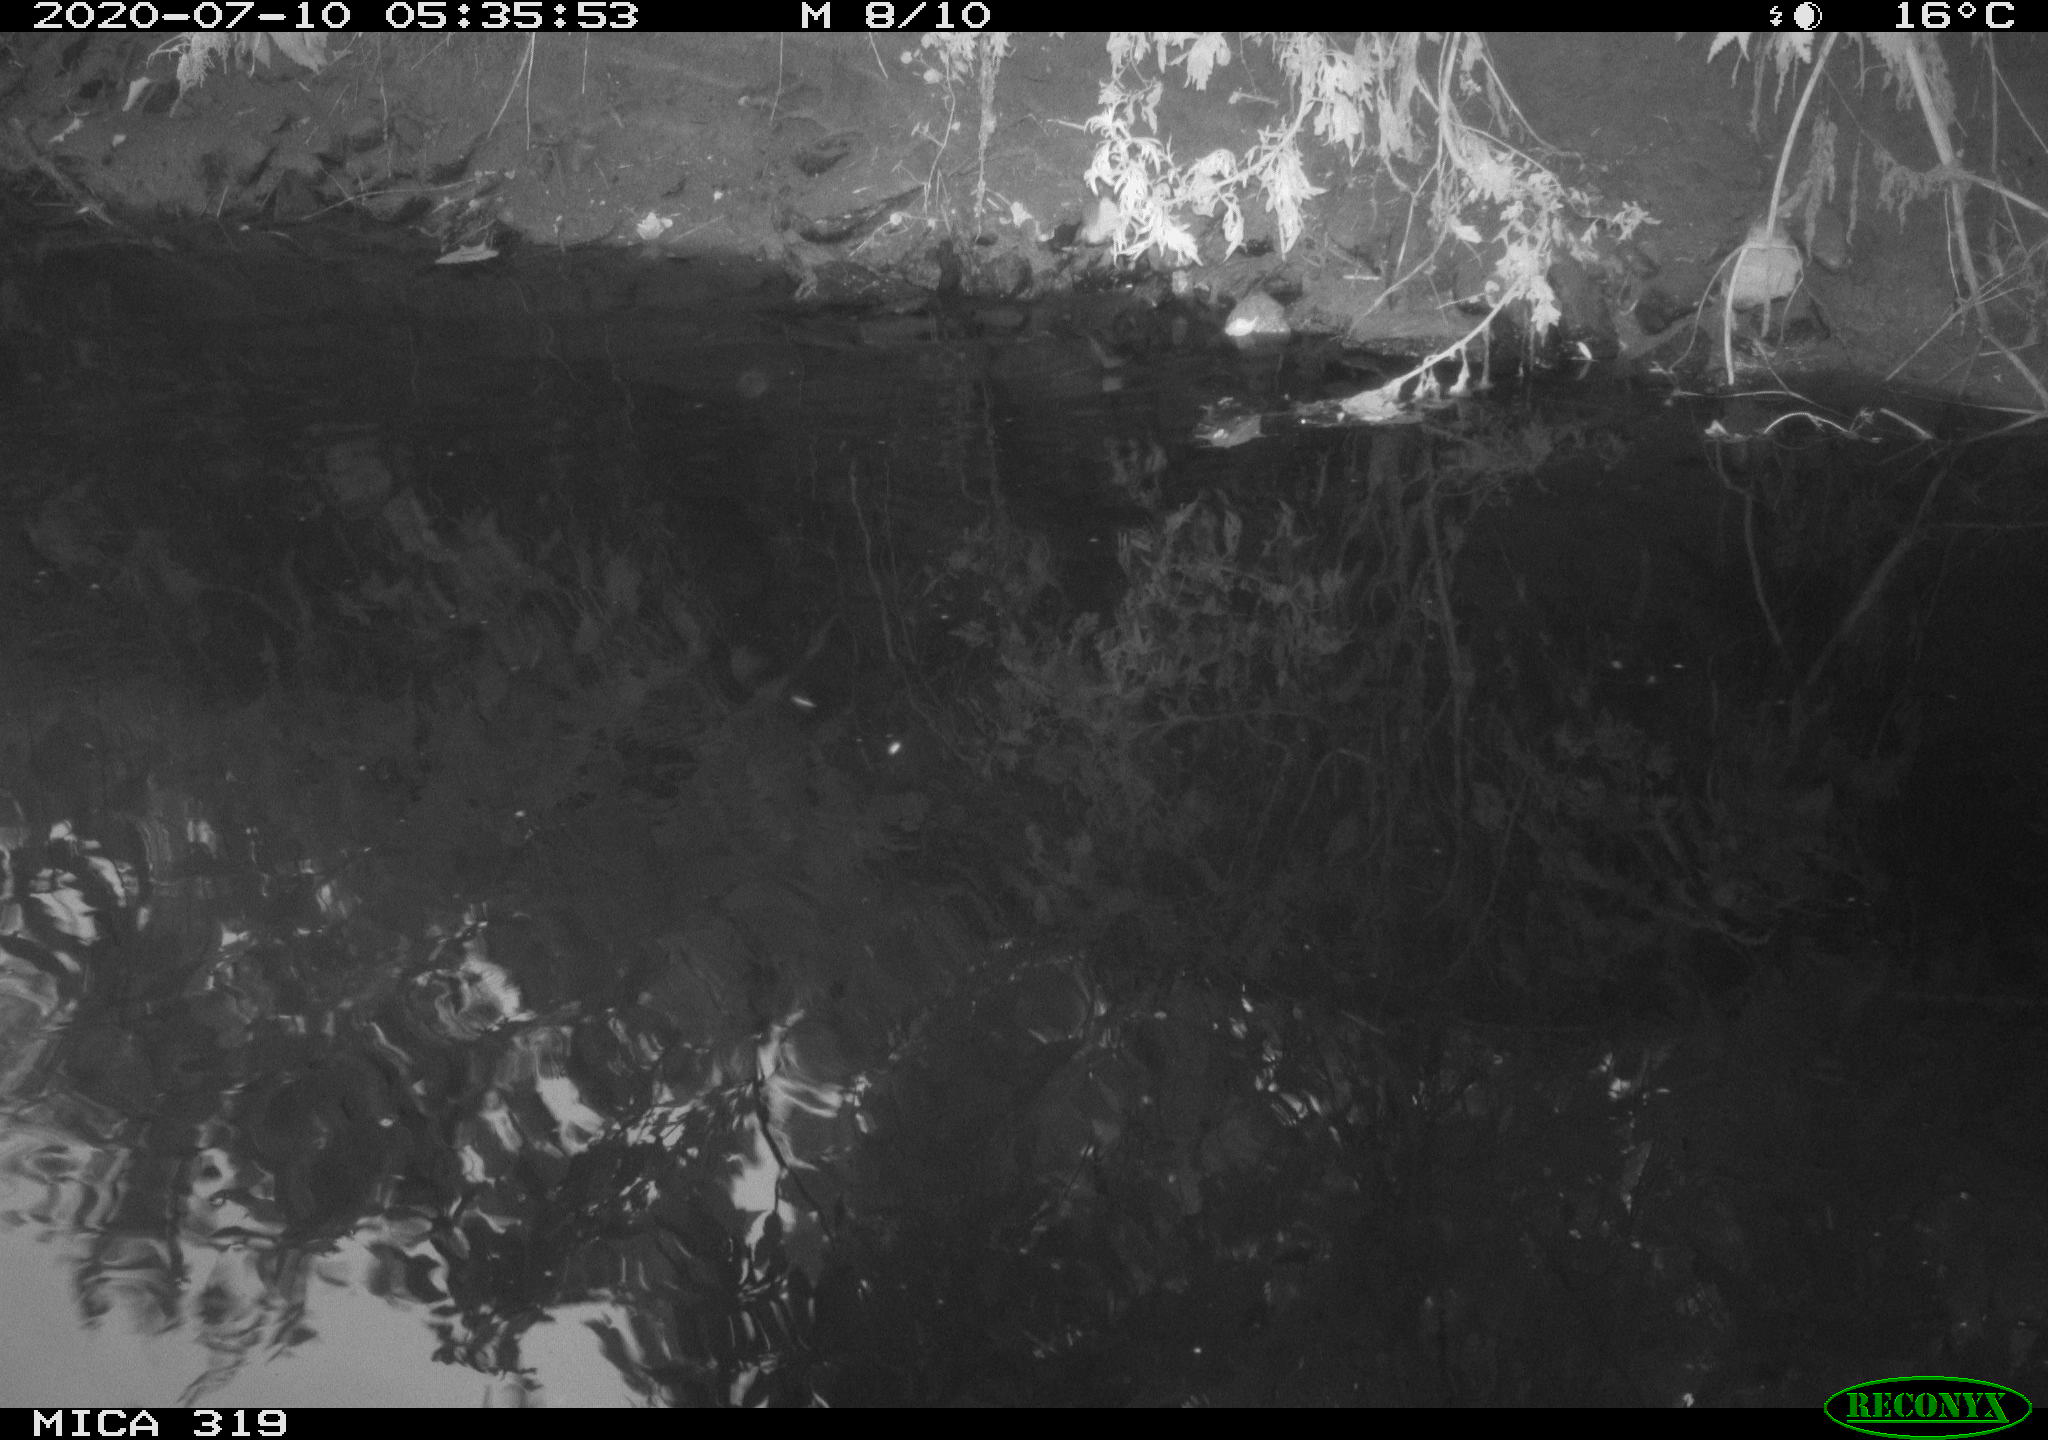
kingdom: Animalia
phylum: Chordata
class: Aves
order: Anseriformes
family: Anatidae
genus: Anas
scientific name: Anas platyrhynchos
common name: Mallard
